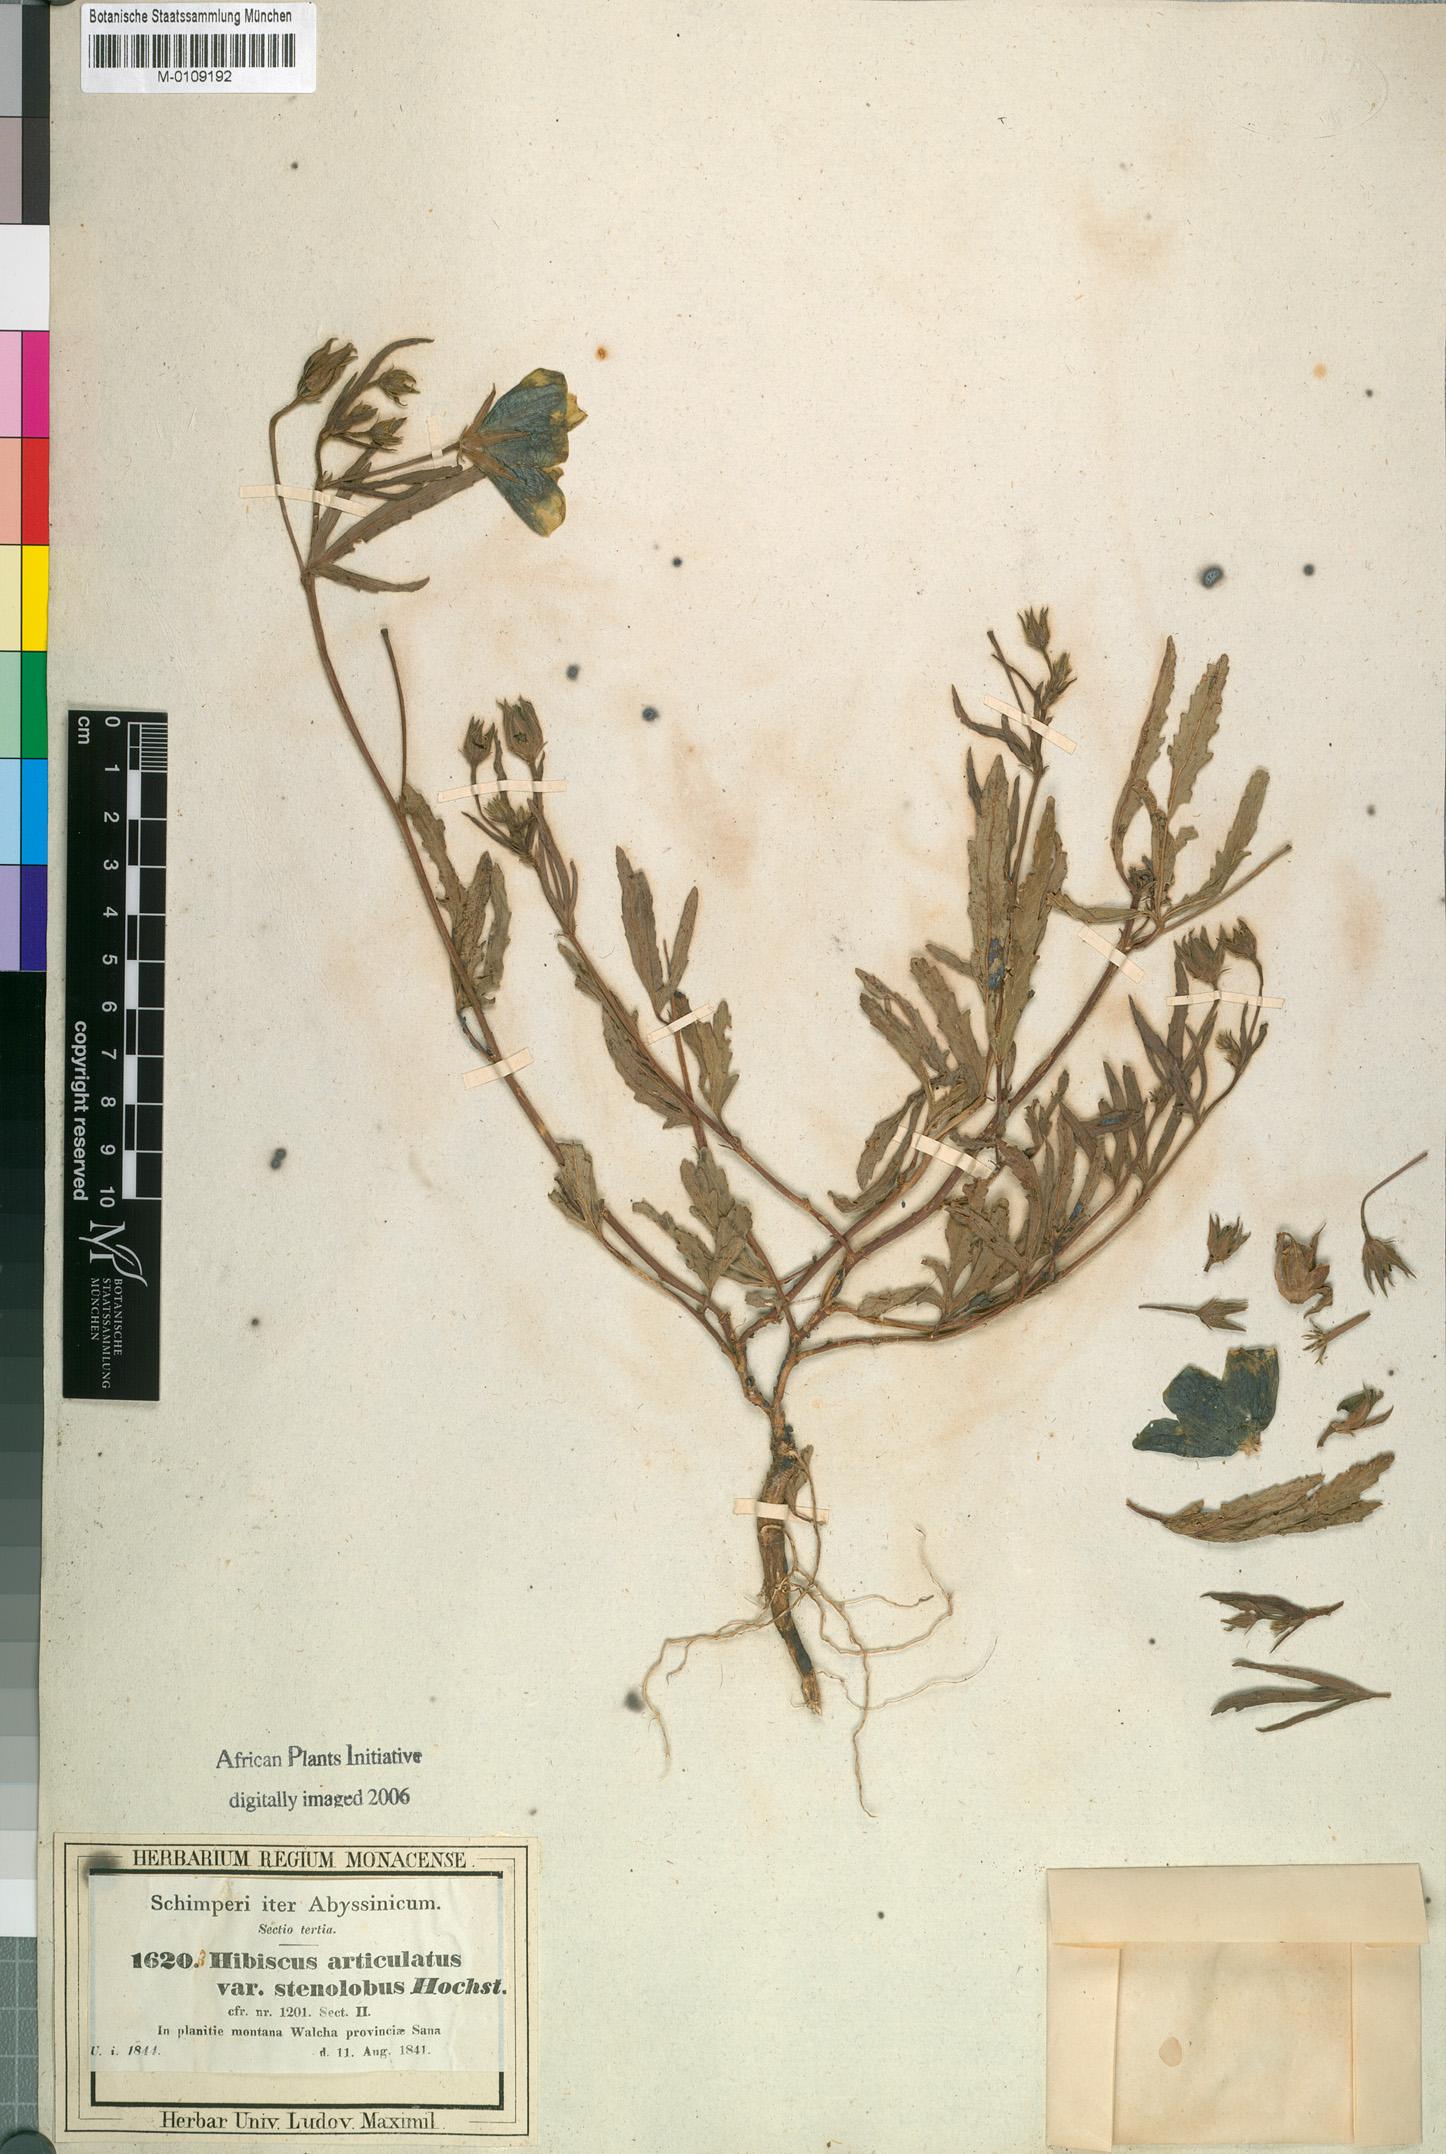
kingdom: Plantae
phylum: Tracheophyta
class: Magnoliopsida
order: Malvales
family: Malvaceae
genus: Hibiscus
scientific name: Hibiscus articulatus
